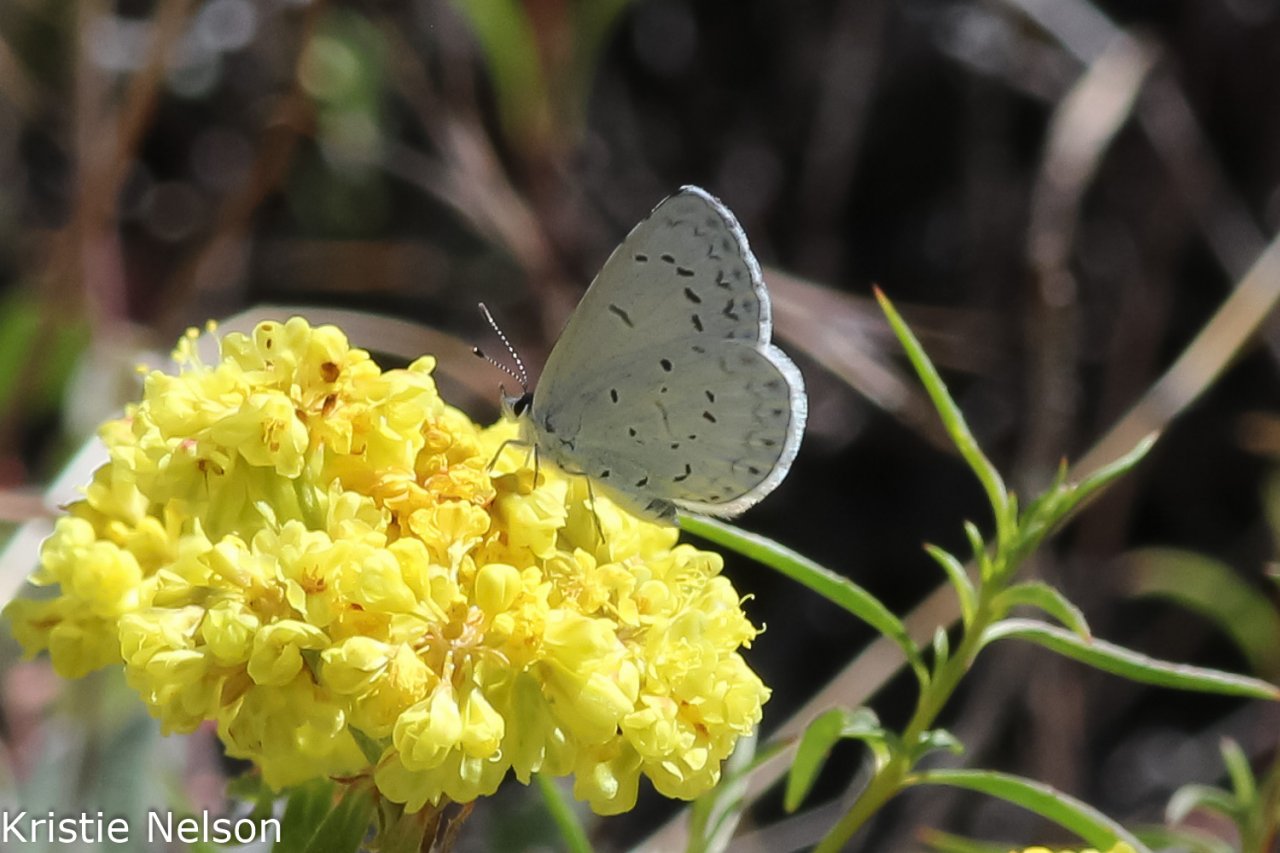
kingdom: Animalia
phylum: Arthropoda
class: Insecta
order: Lepidoptera
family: Lycaenidae
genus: Celastrina
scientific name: Celastrina ladon
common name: Echo Azure
